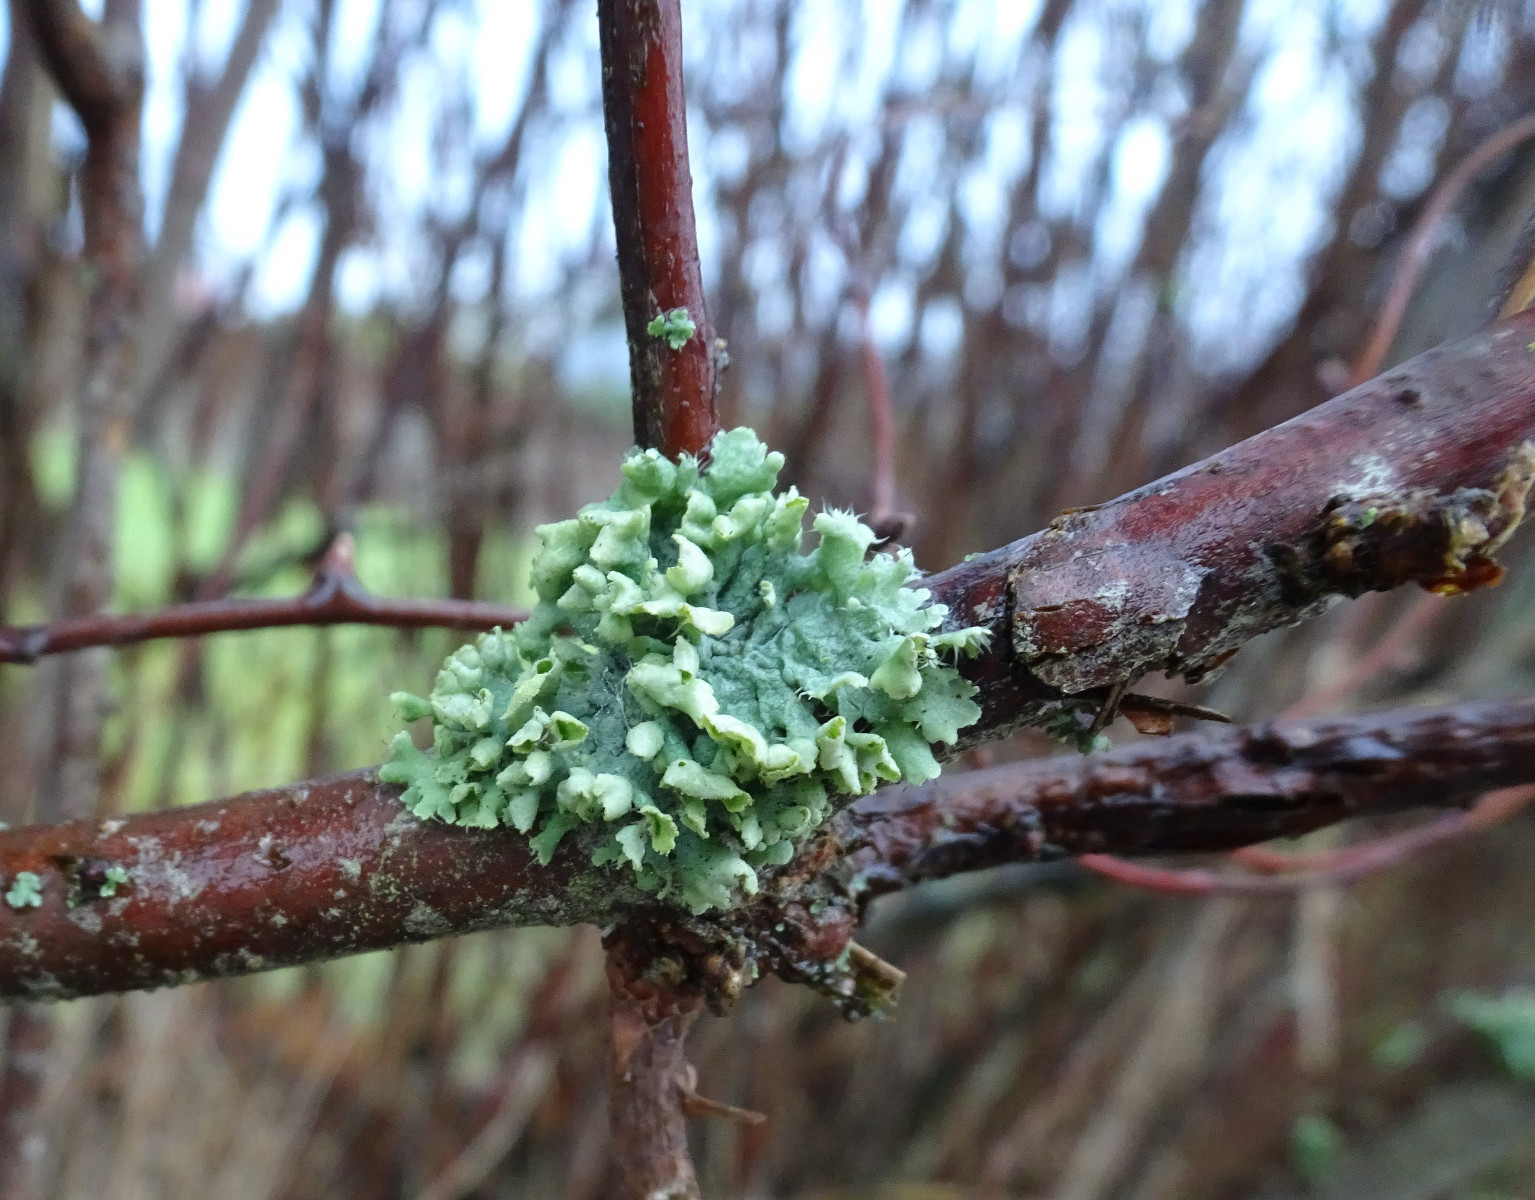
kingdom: Fungi
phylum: Ascomycota
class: Lecanoromycetes
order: Caliciales
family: Physciaceae
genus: Physcia
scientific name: Physcia adscendens
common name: hætte-rosetlav
